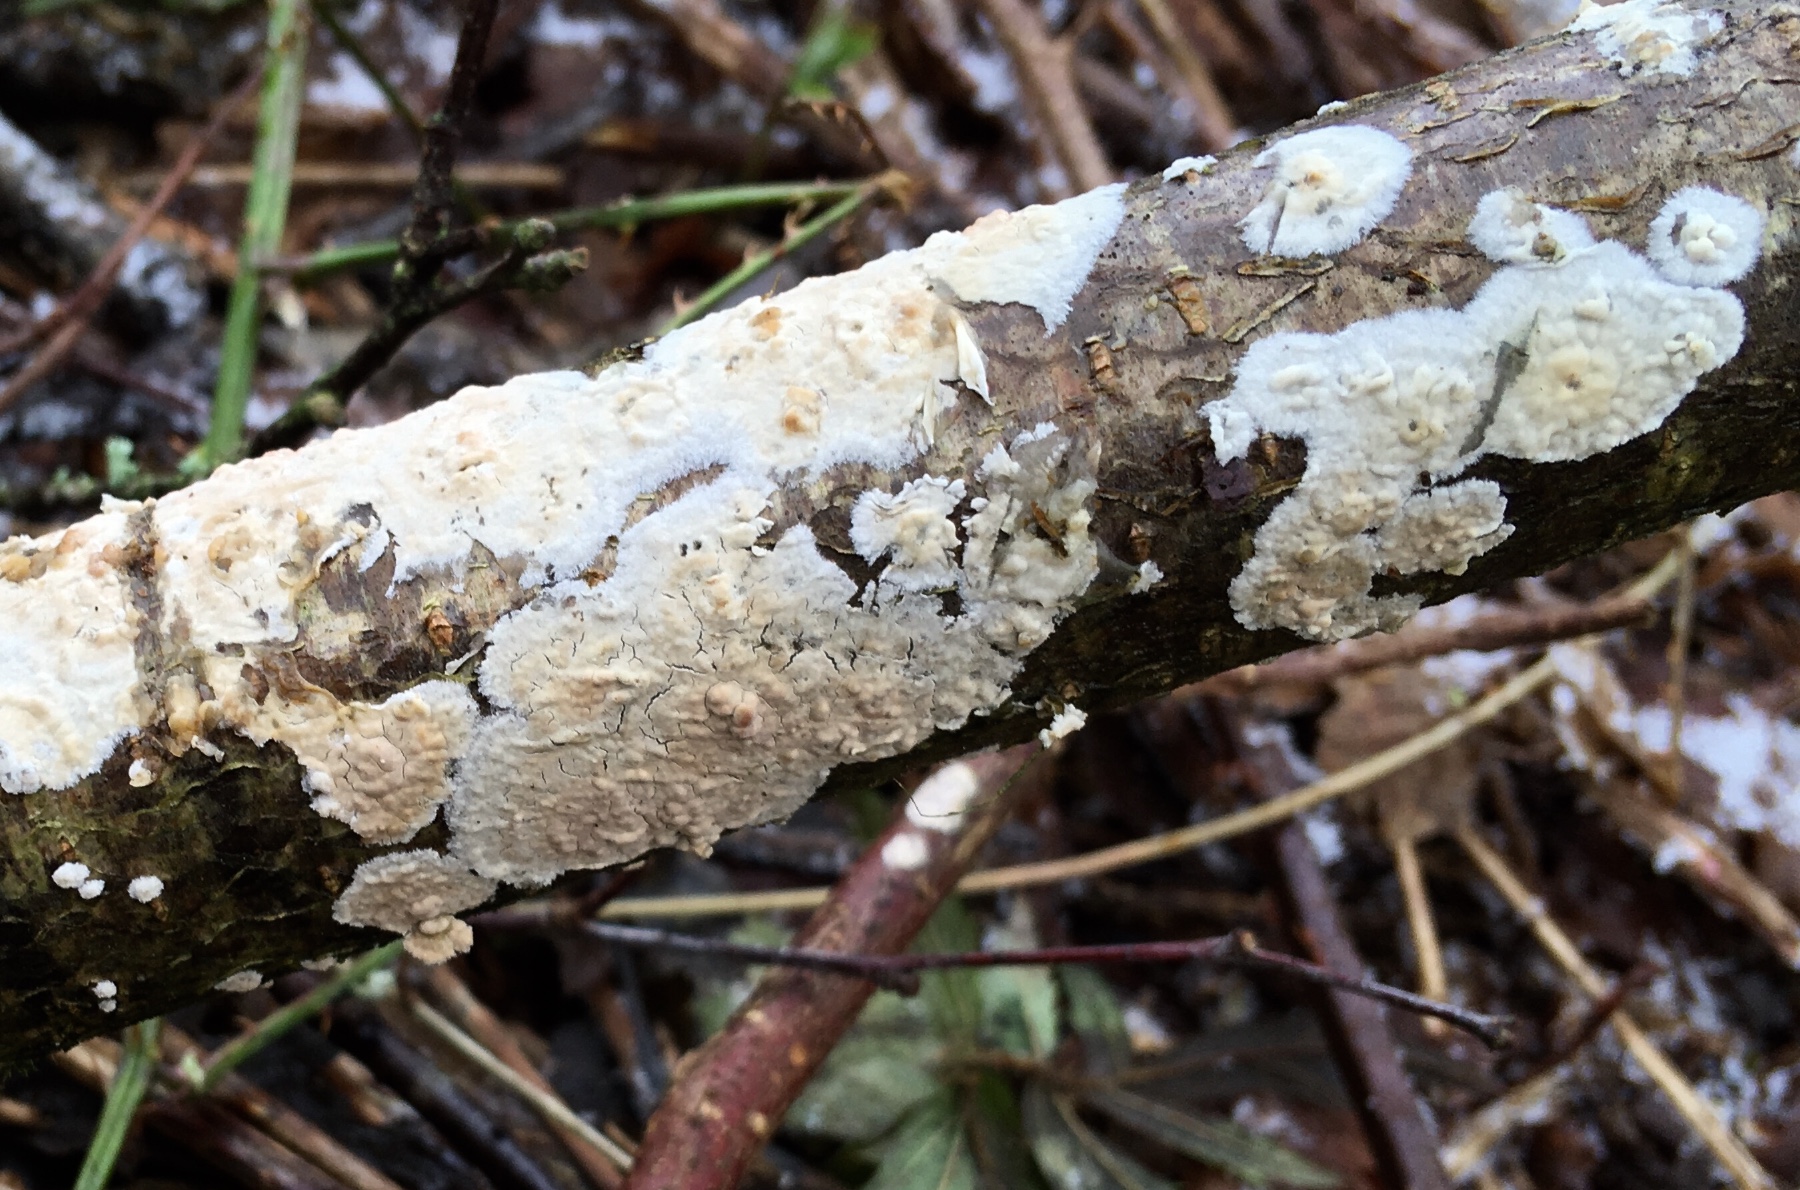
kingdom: Fungi
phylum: Basidiomycota
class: Agaricomycetes
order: Agaricales
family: Physalacriaceae
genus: Cylindrobasidium
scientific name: Cylindrobasidium evolvens
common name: sprækkehinde
